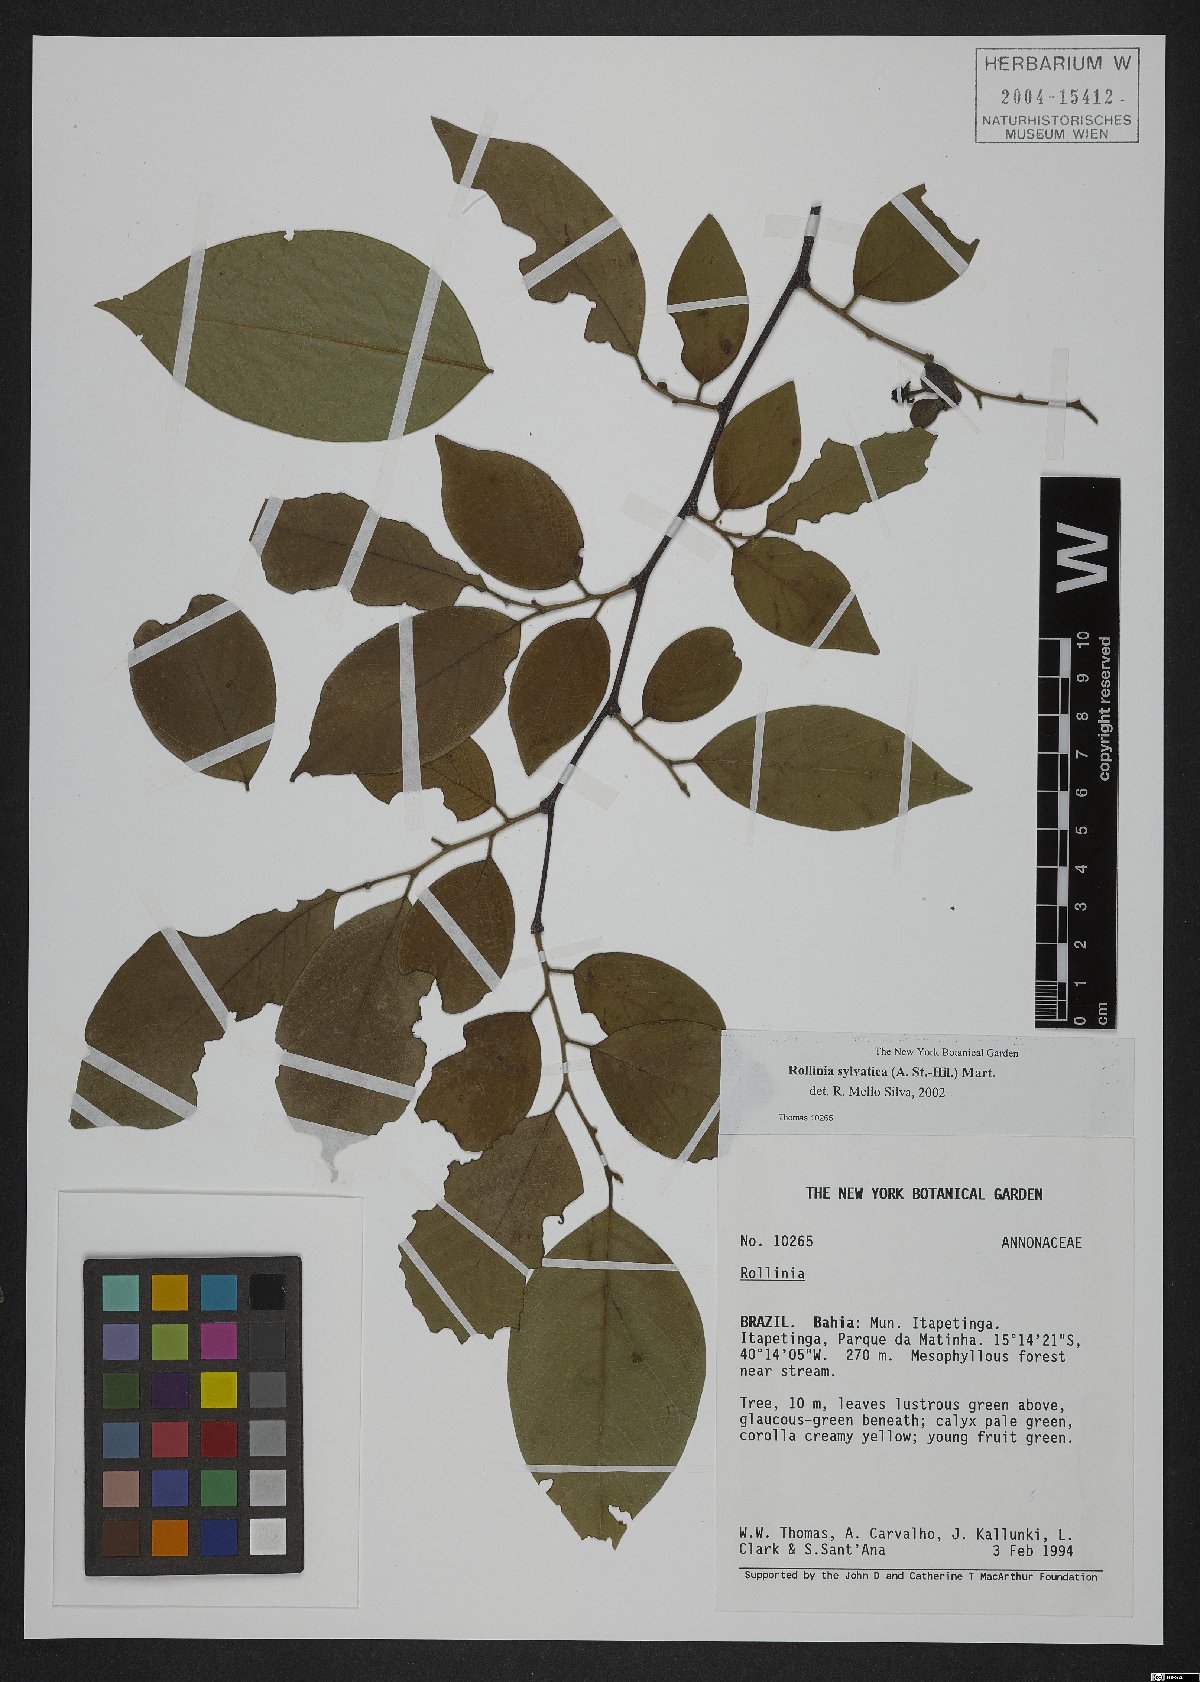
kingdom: Plantae
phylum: Tracheophyta
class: Magnoliopsida
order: Magnoliales
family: Annonaceae
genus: Annona
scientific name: Annona sylvatica
